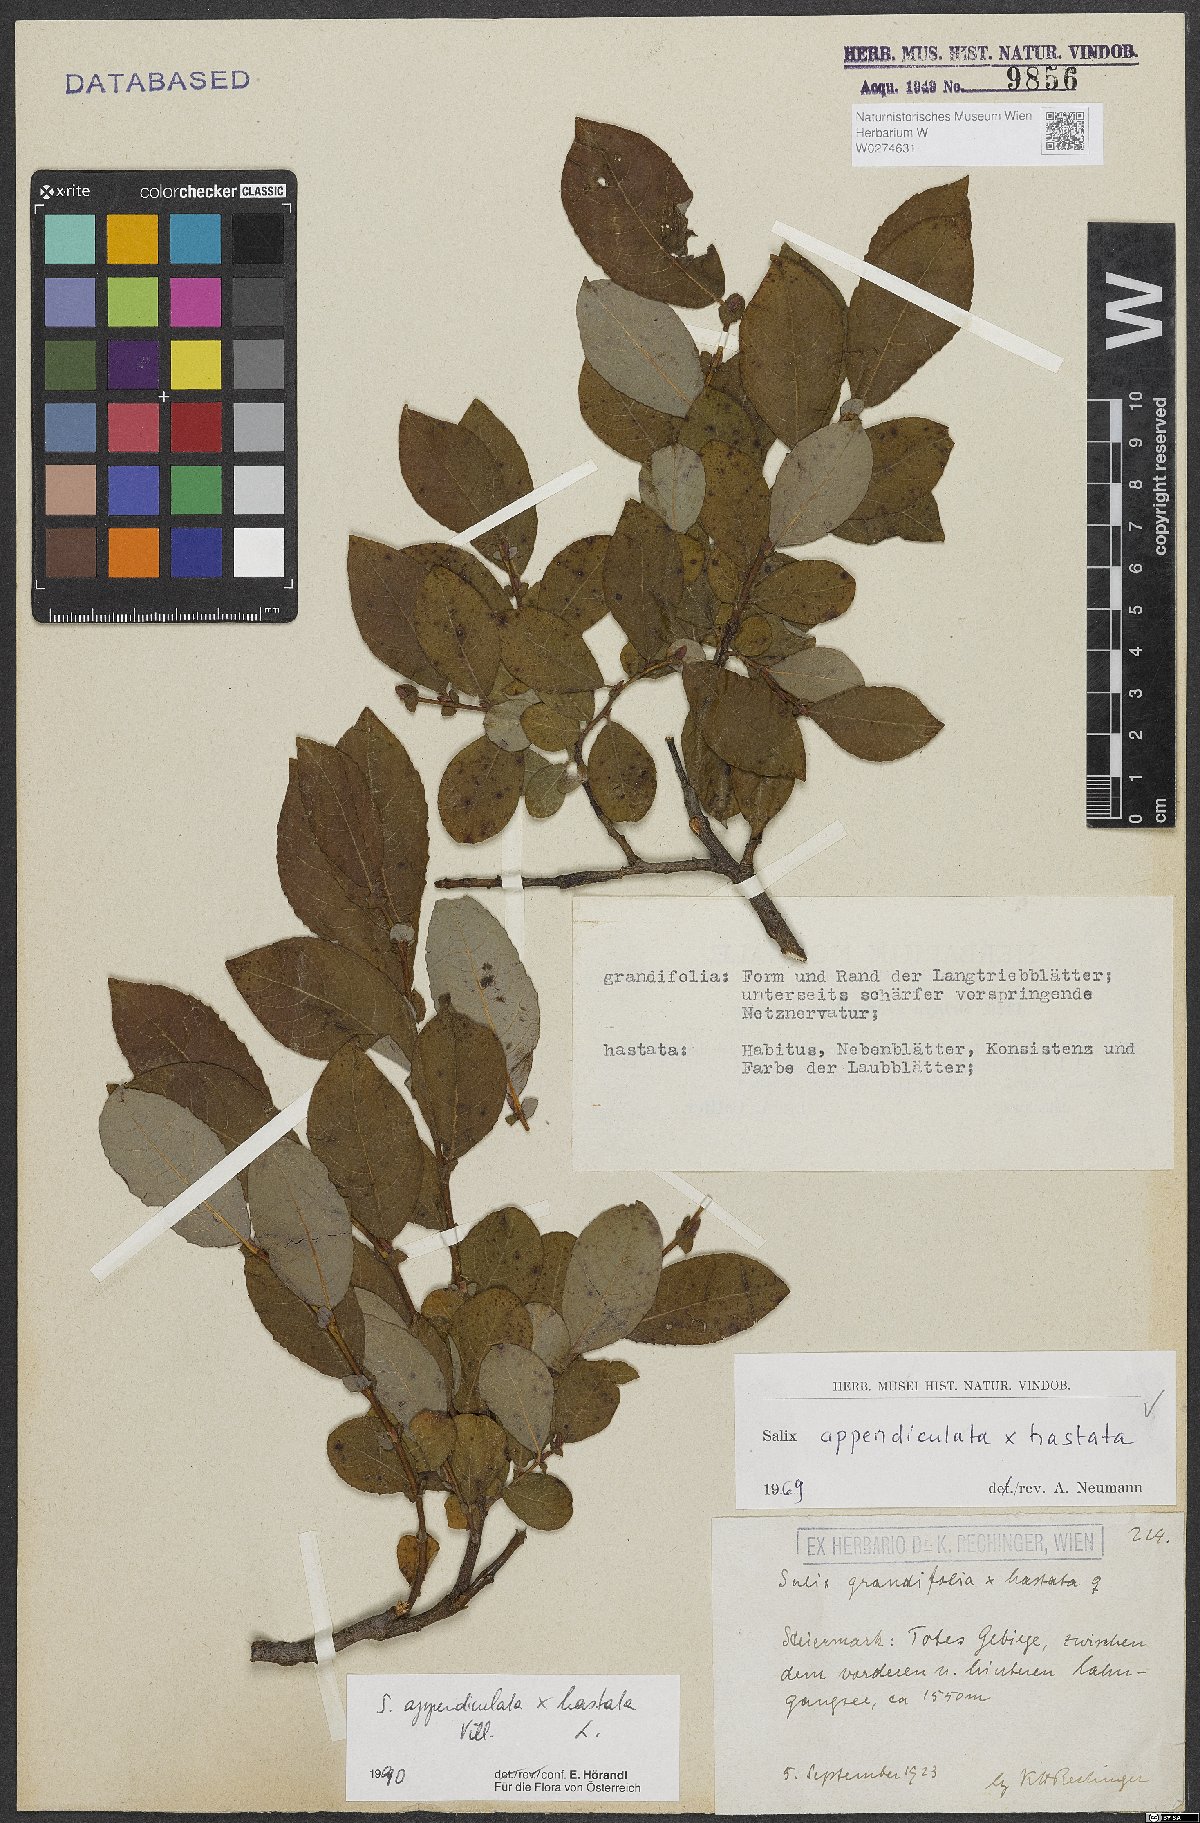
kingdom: Plantae
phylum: Tracheophyta
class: Magnoliopsida
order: Malpighiales
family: Salicaceae
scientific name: Salicaceae
